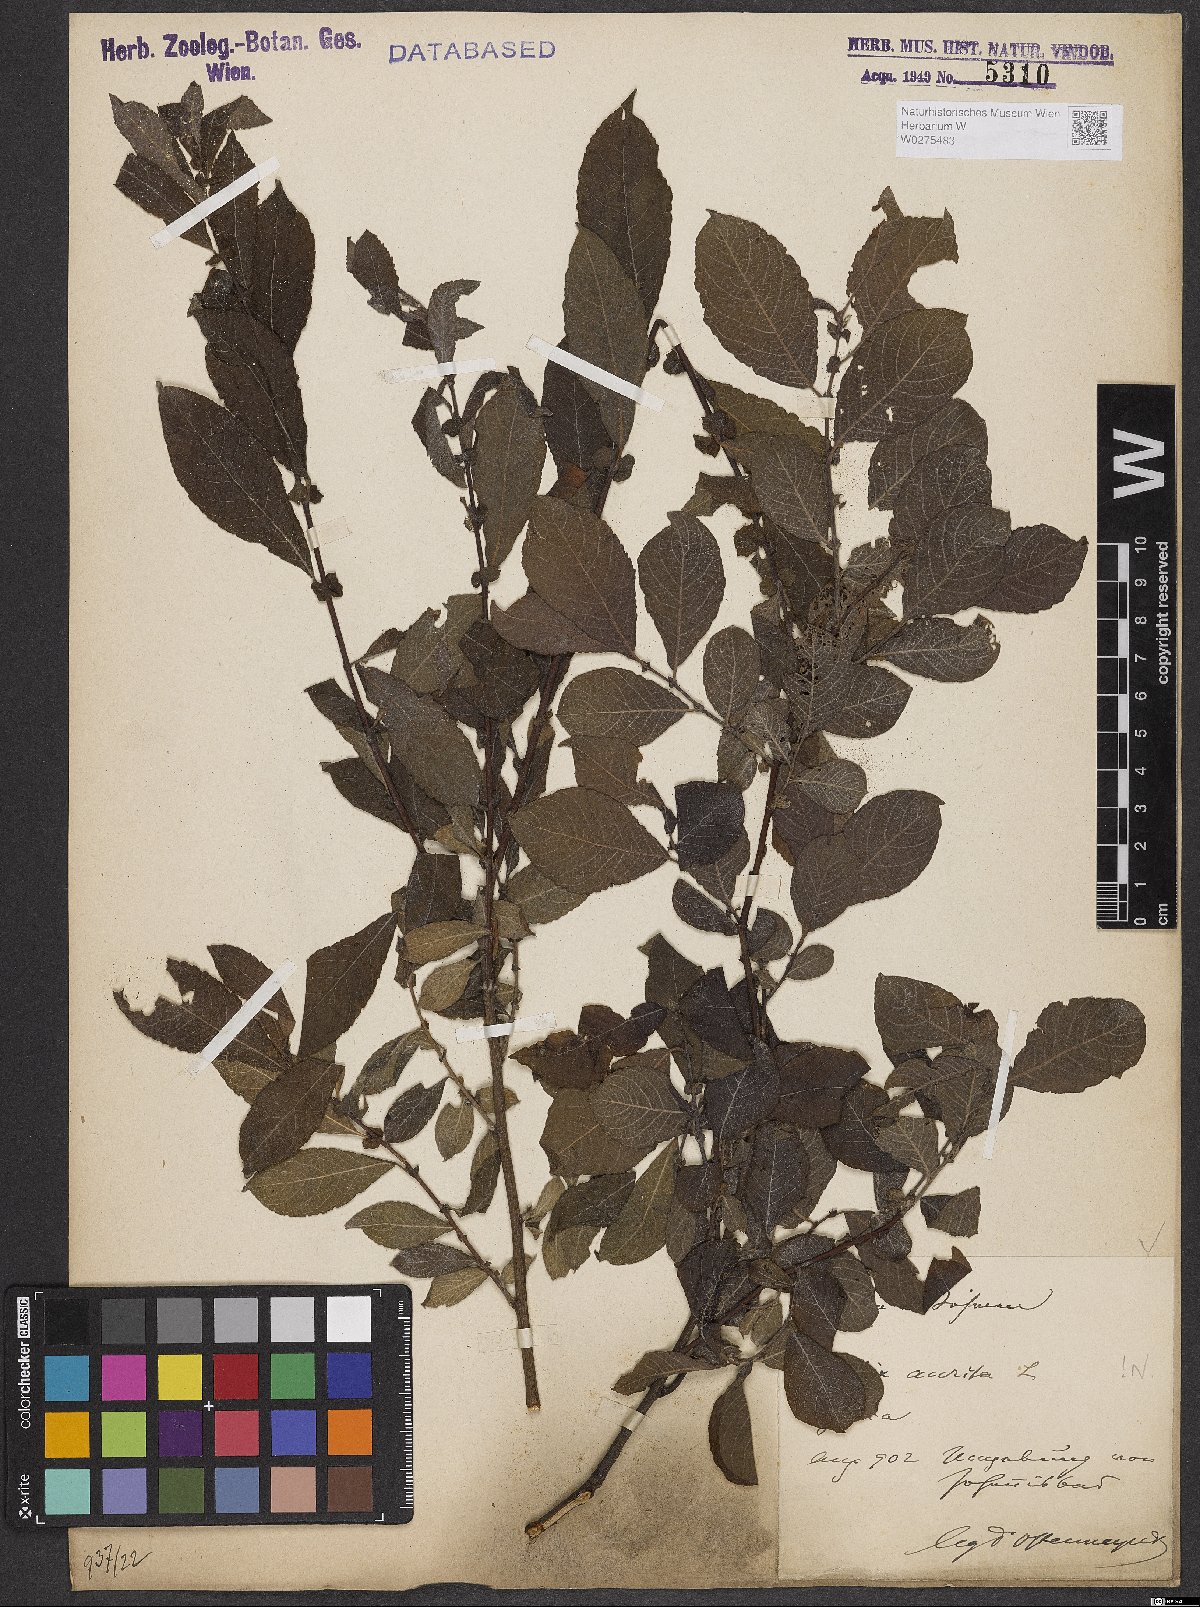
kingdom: Plantae
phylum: Tracheophyta
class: Magnoliopsida
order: Malpighiales
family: Salicaceae
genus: Salix
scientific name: Salix aurita
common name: Eared willow
